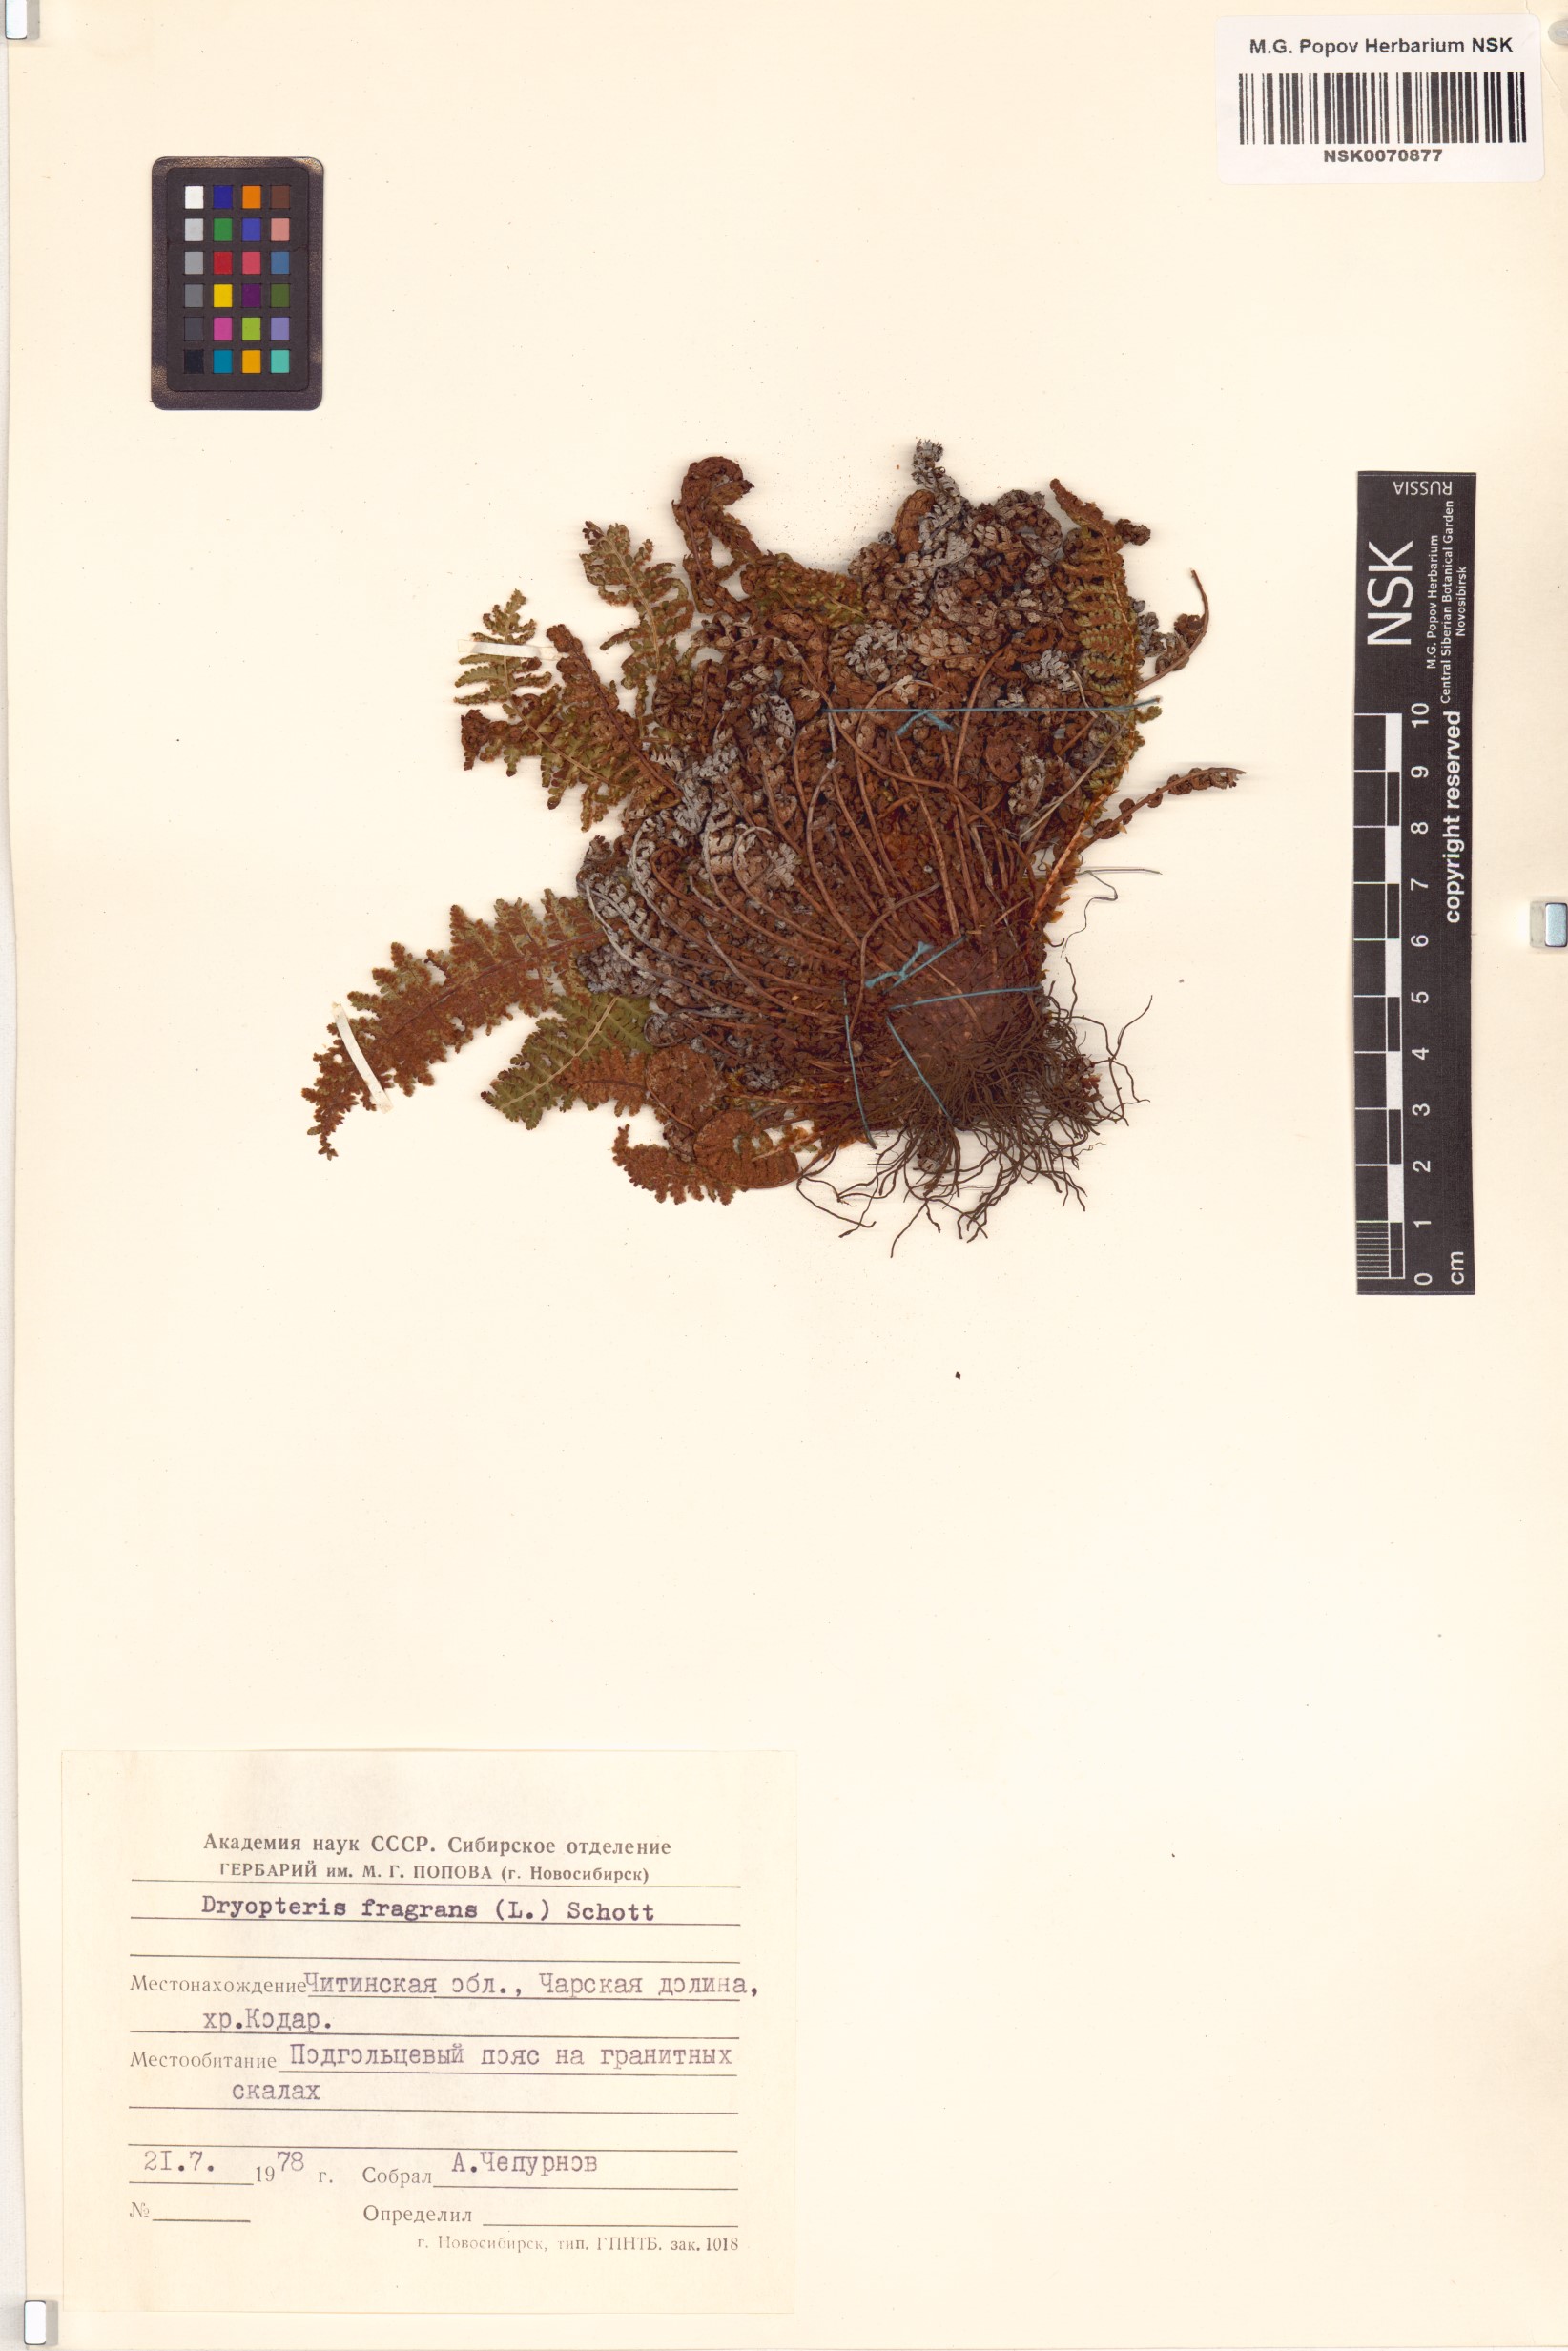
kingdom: Plantae
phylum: Tracheophyta
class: Polypodiopsida
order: Polypodiales
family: Dryopteridaceae
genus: Dryopteris
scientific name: Dryopteris fragrans
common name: Fragrant wood fern
